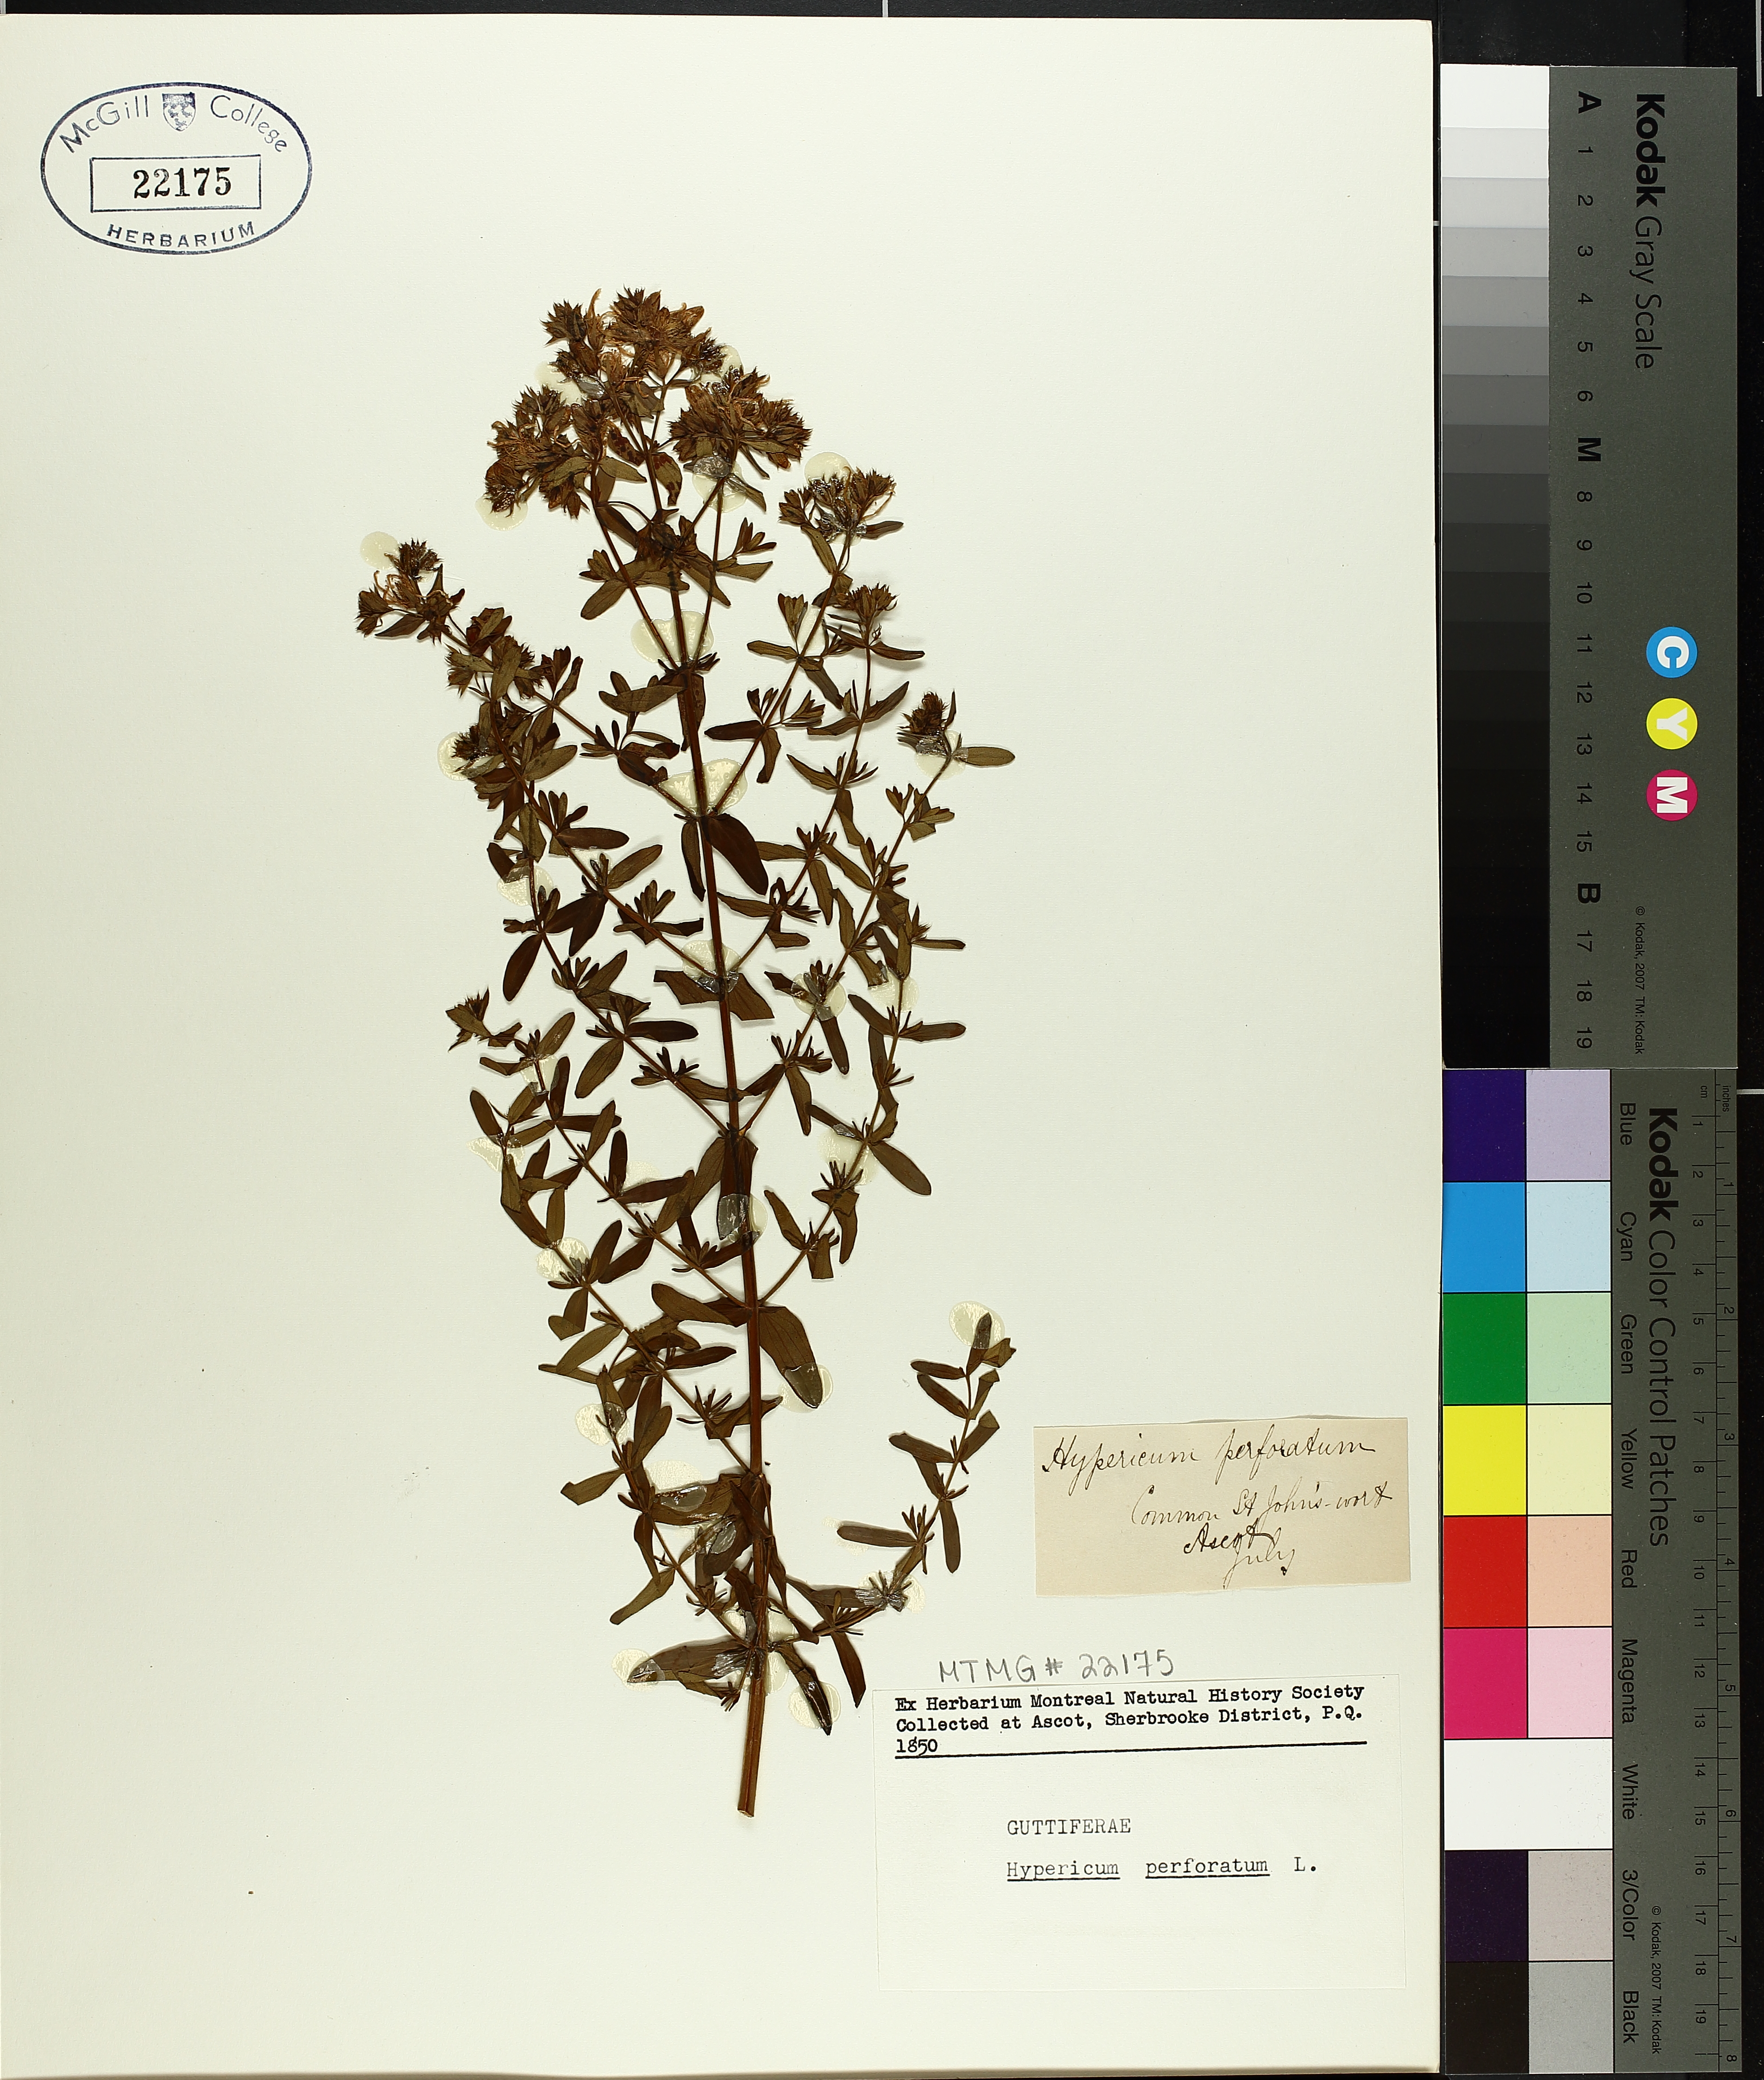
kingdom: Plantae
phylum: Tracheophyta
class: Magnoliopsida
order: Malpighiales
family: Hypericaceae
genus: Hypericum
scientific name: Hypericum perforatum
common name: Common st. johnswort
